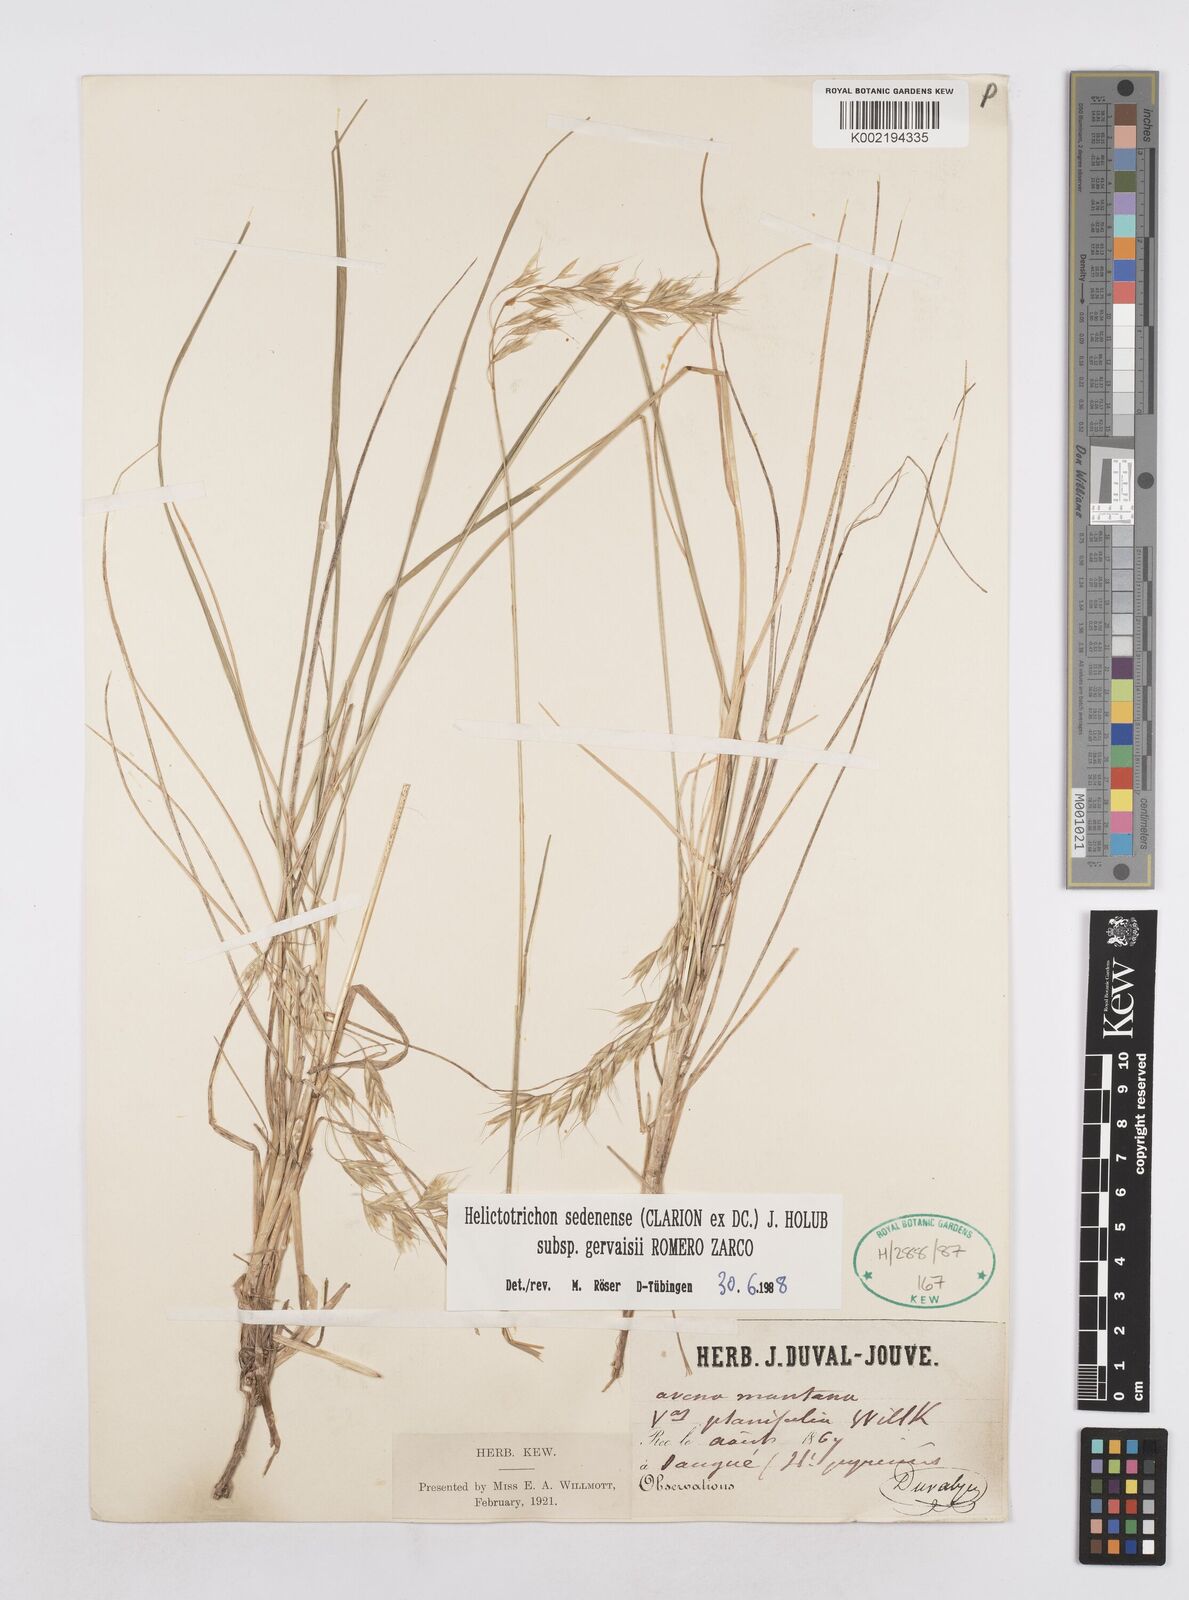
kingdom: Plantae
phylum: Tracheophyta
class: Liliopsida
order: Poales
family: Poaceae
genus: Helictotrichon
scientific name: Helictotrichon sedenense
